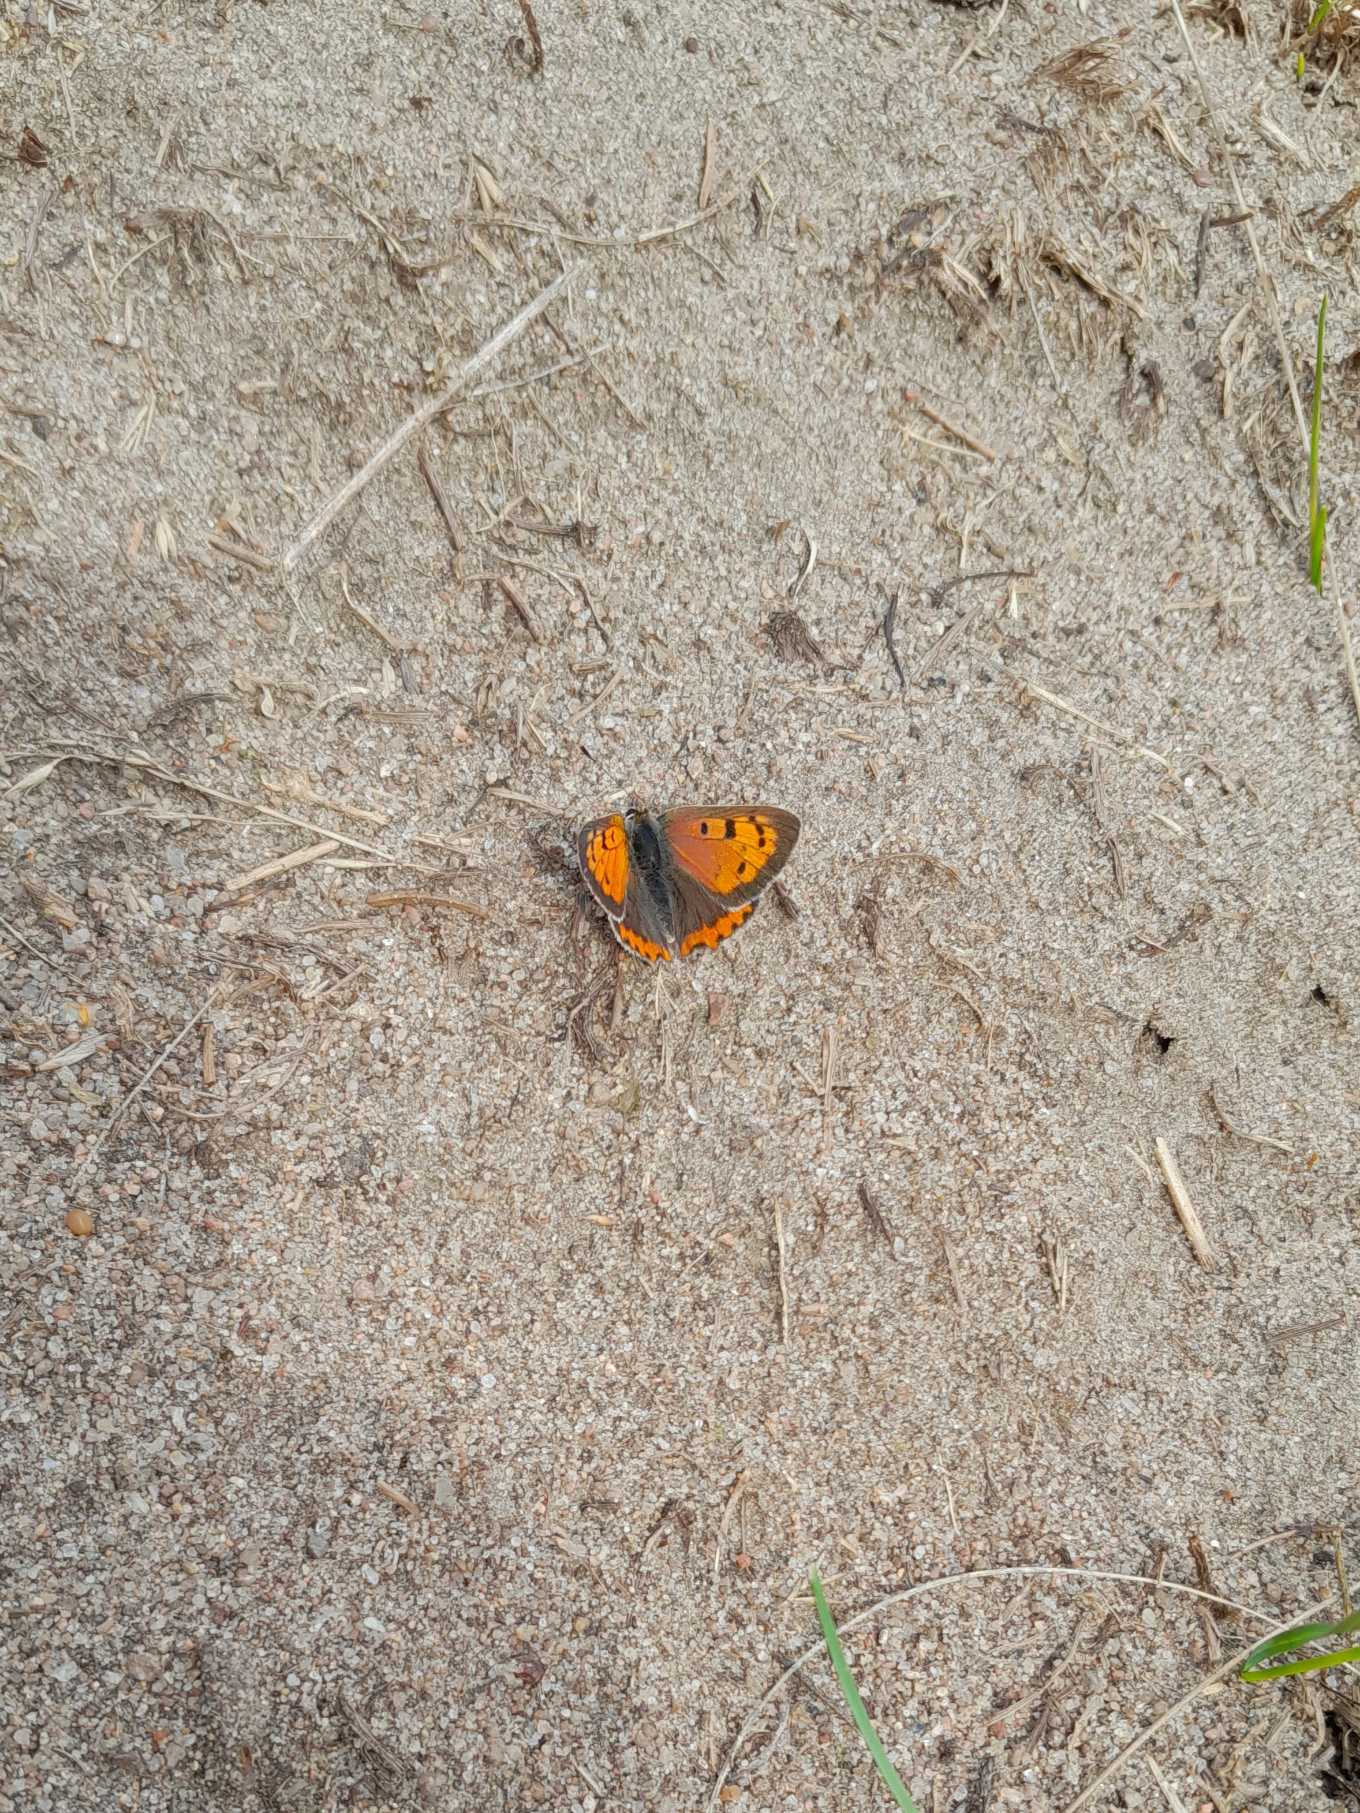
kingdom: Animalia
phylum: Arthropoda
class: Insecta
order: Lepidoptera
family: Lycaenidae
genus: Lycaena
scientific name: Lycaena phlaeas
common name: Lille ildfugl
